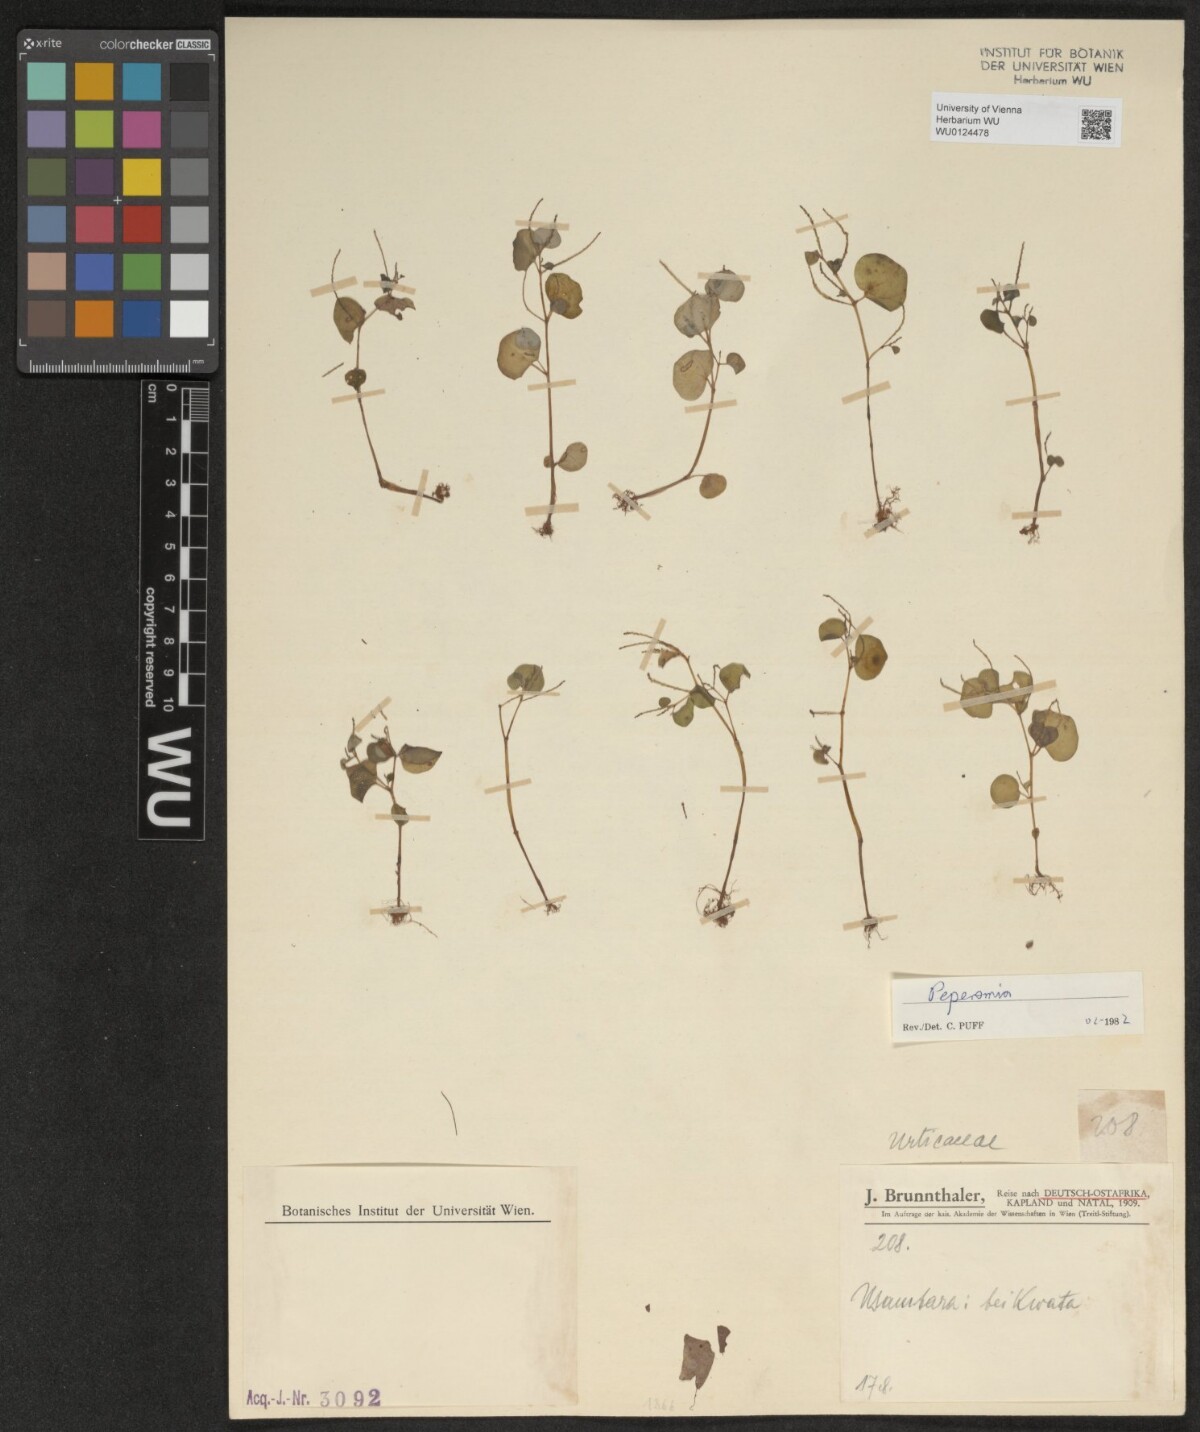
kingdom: Plantae
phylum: Tracheophyta
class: Magnoliopsida
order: Piperales
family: Piperaceae
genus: Peperomia
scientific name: Peperomia
